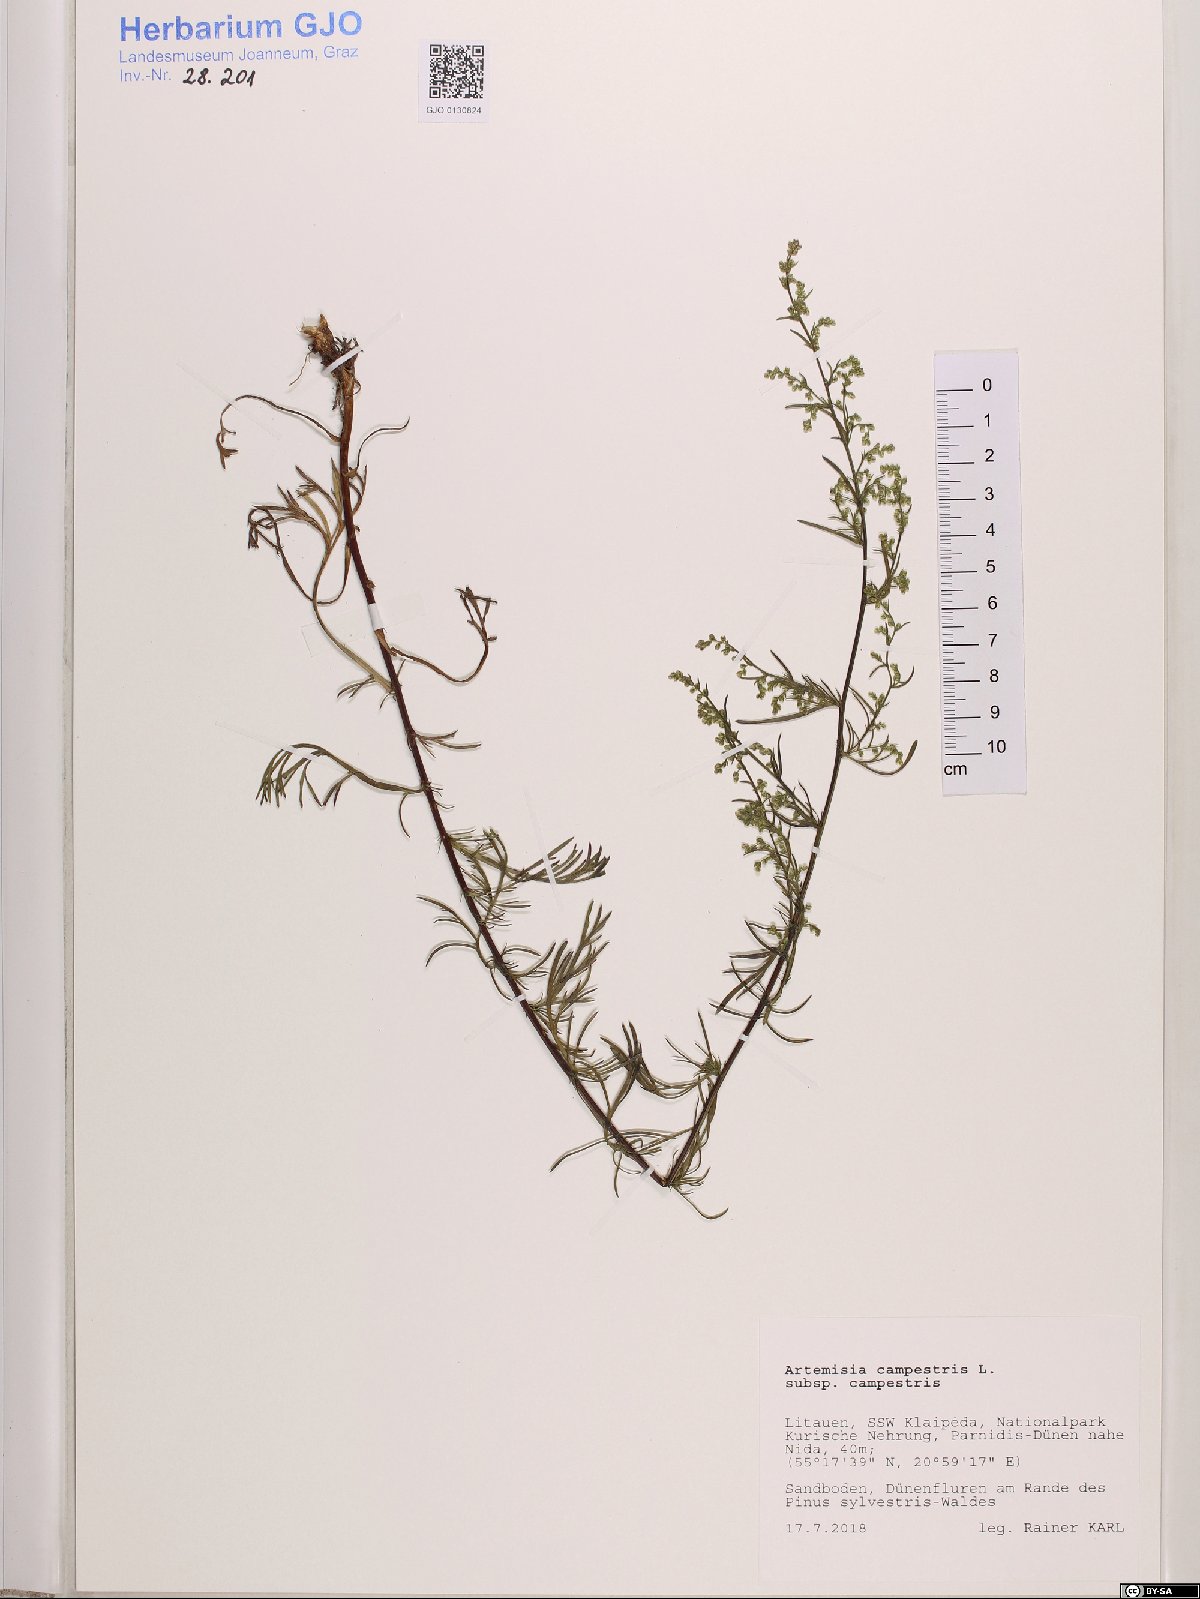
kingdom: Plantae
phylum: Tracheophyta
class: Magnoliopsida
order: Asterales
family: Asteraceae
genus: Artemisia
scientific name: Artemisia campestris
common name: Field wormwood
